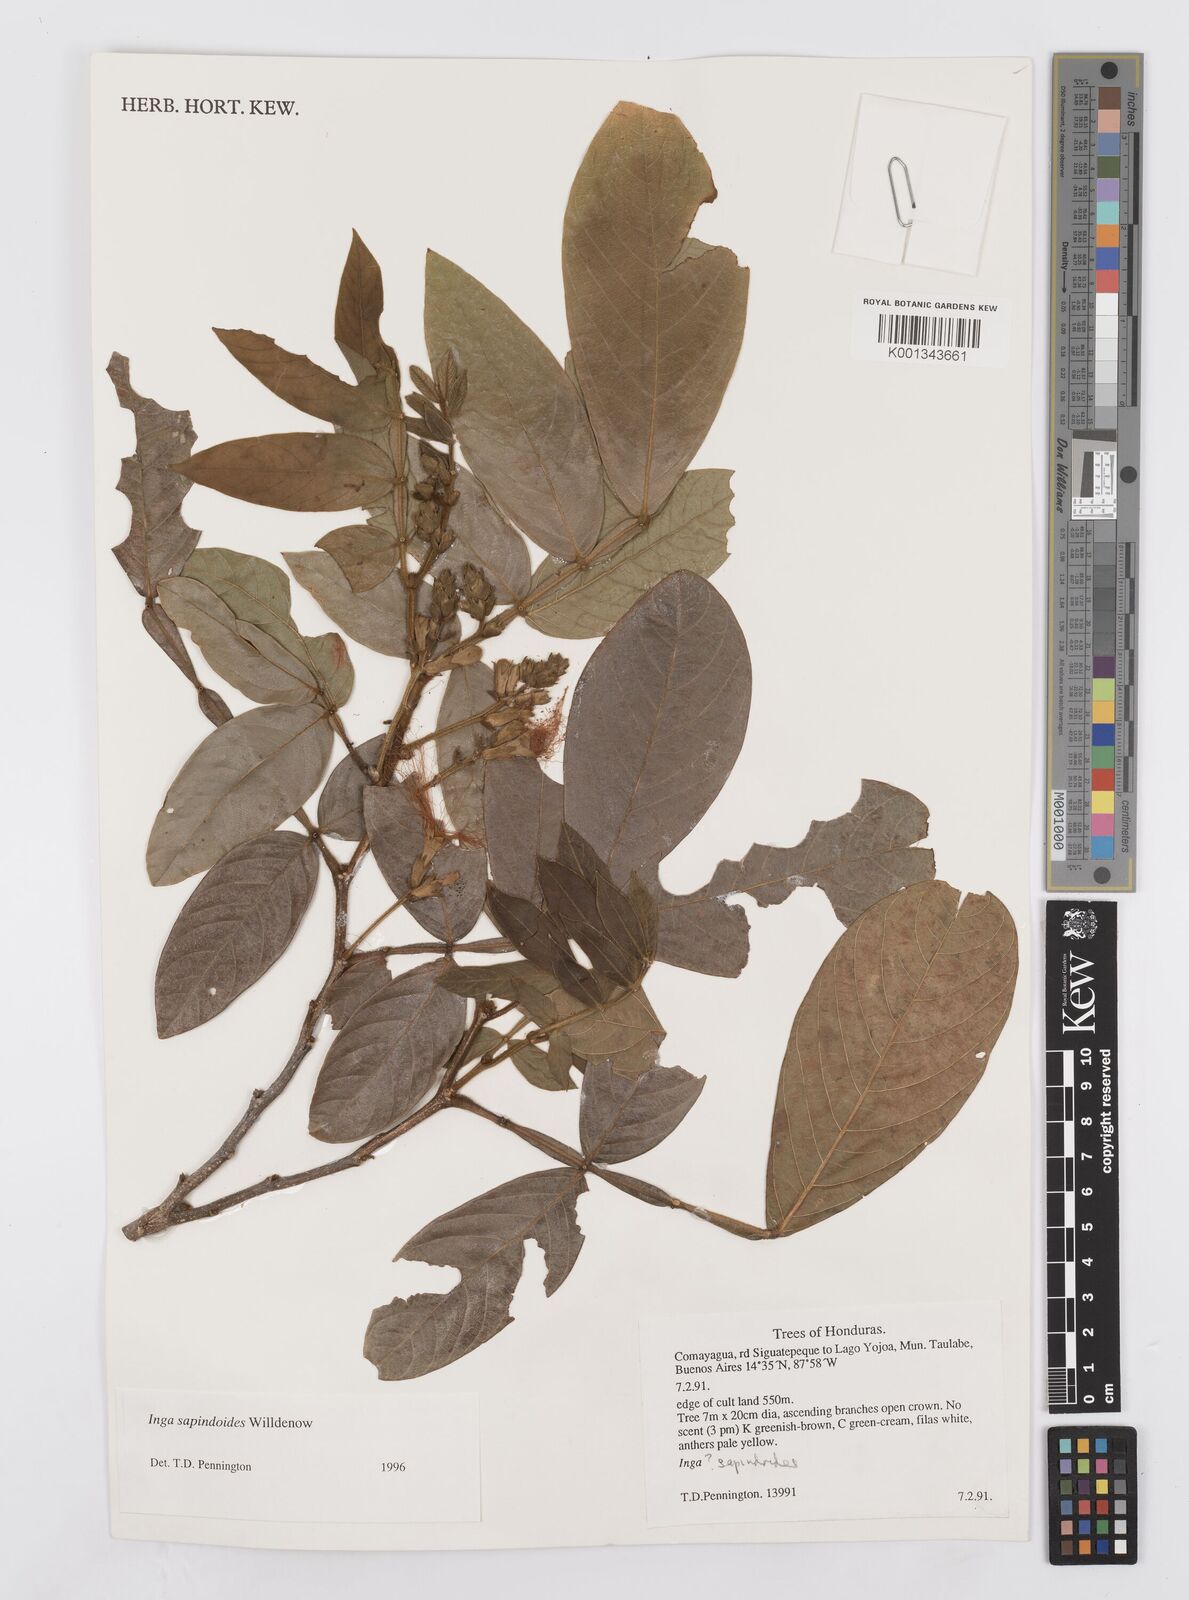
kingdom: Plantae
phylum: Tracheophyta
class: Magnoliopsida
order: Fabales
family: Fabaceae
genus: Inga
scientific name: Inga sapindoides
